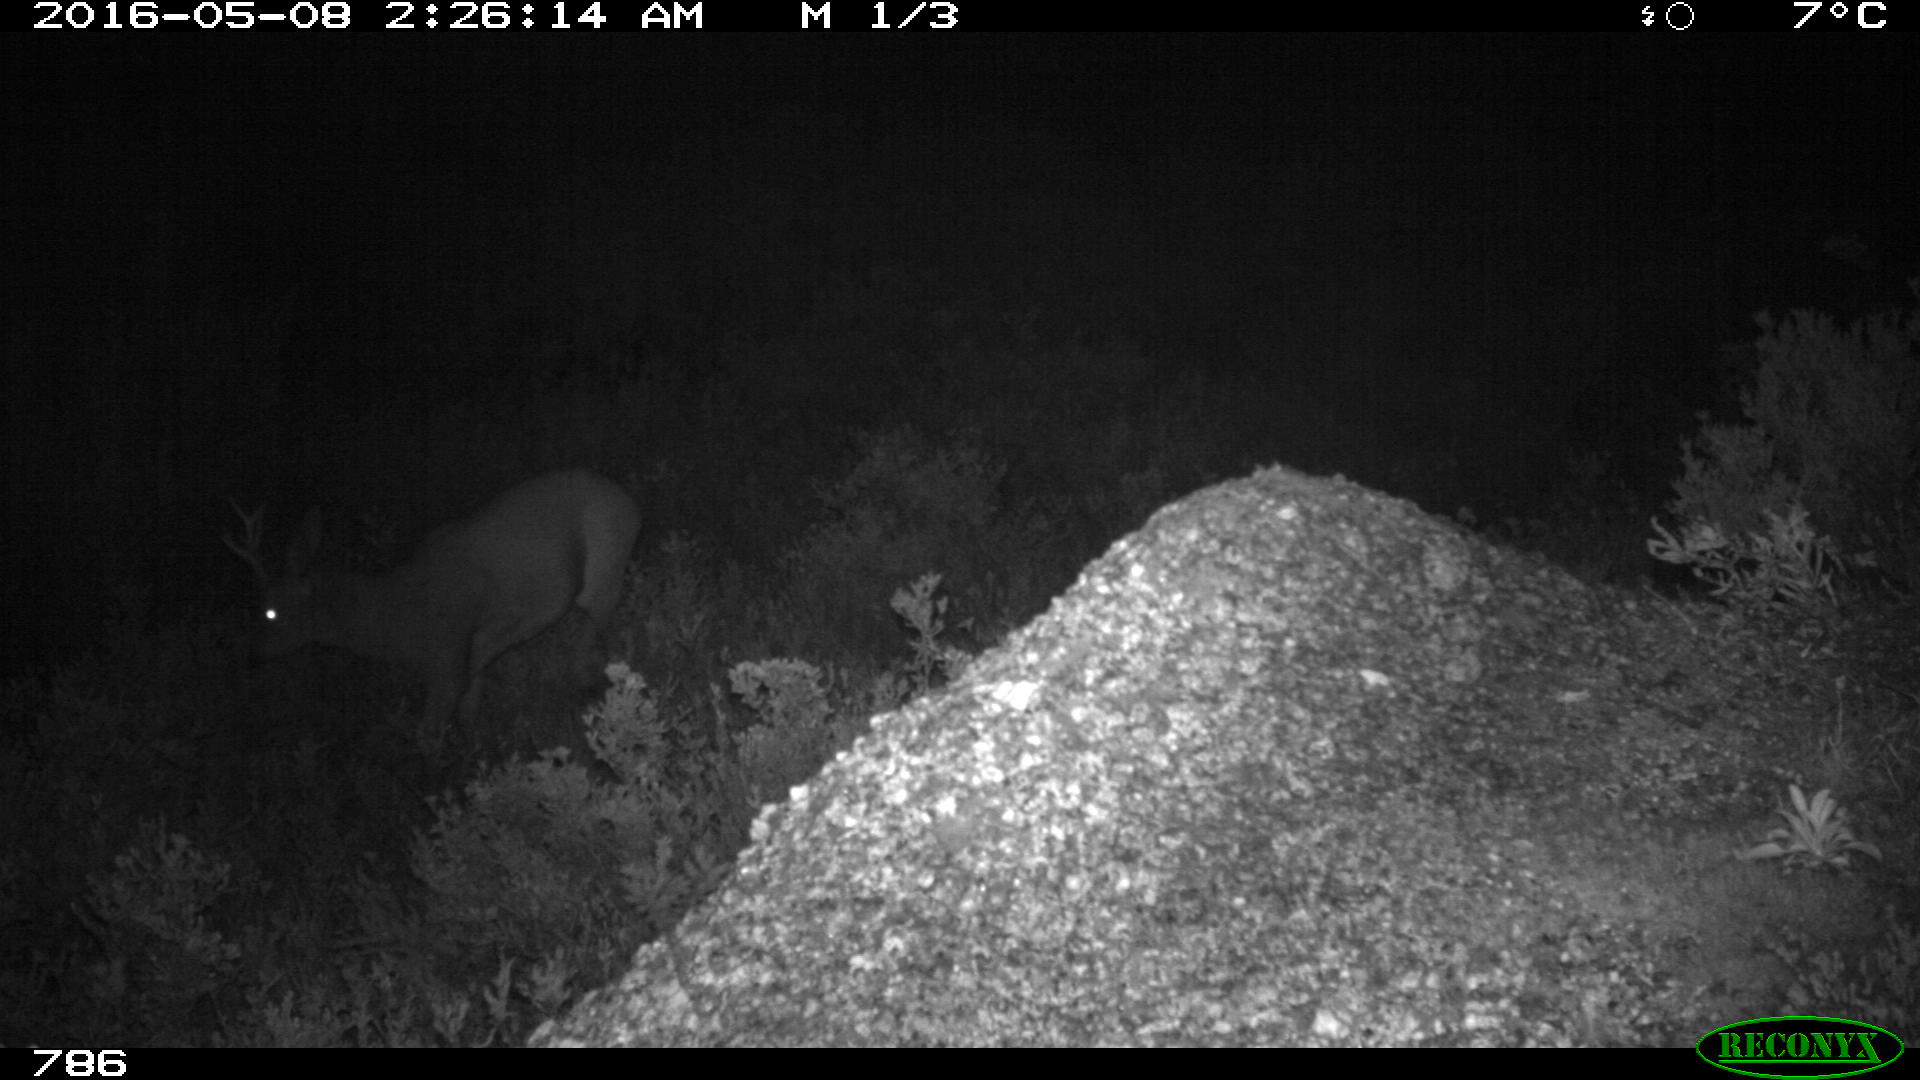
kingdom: Animalia
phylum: Chordata
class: Mammalia
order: Artiodactyla
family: Cervidae
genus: Capreolus
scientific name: Capreolus capreolus
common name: Western roe deer
